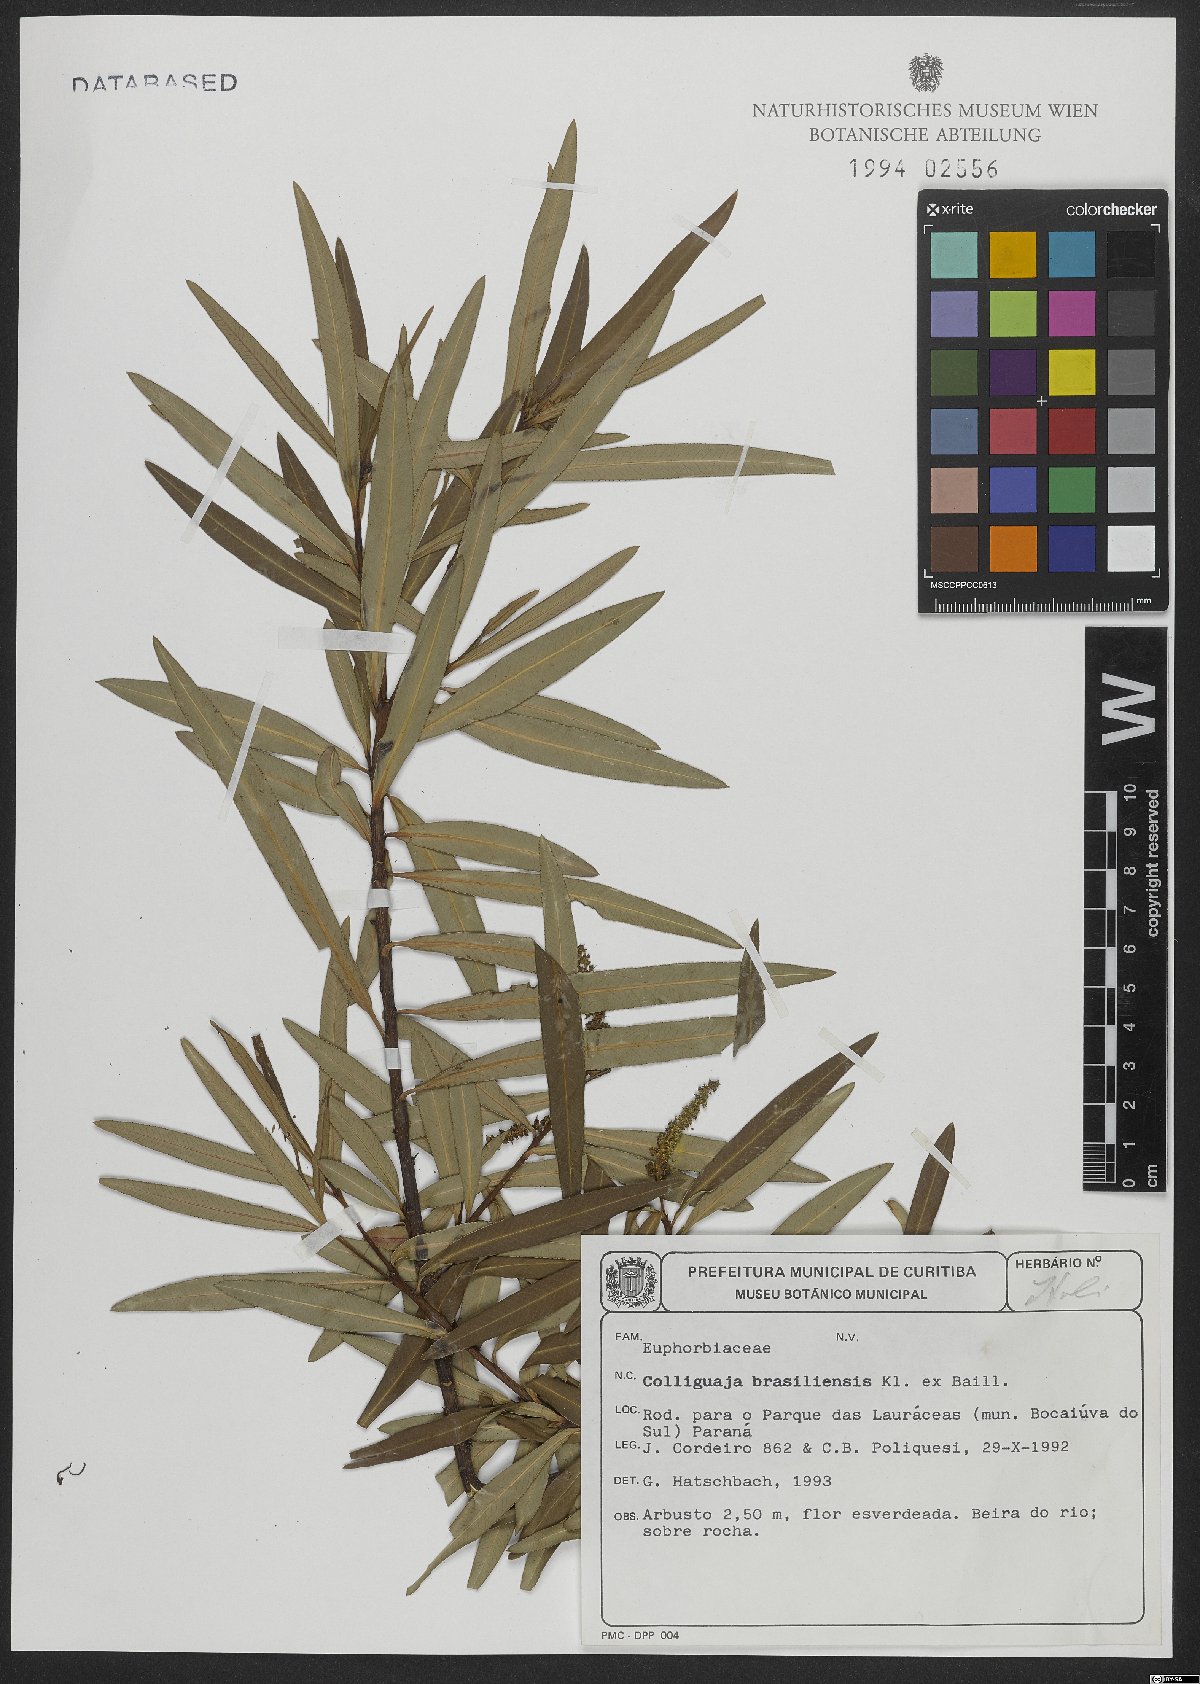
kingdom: Plantae
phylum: Tracheophyta
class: Magnoliopsida
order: Malpighiales
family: Euphorbiaceae
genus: Colliguaja
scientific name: Colliguaja brasiliensis
